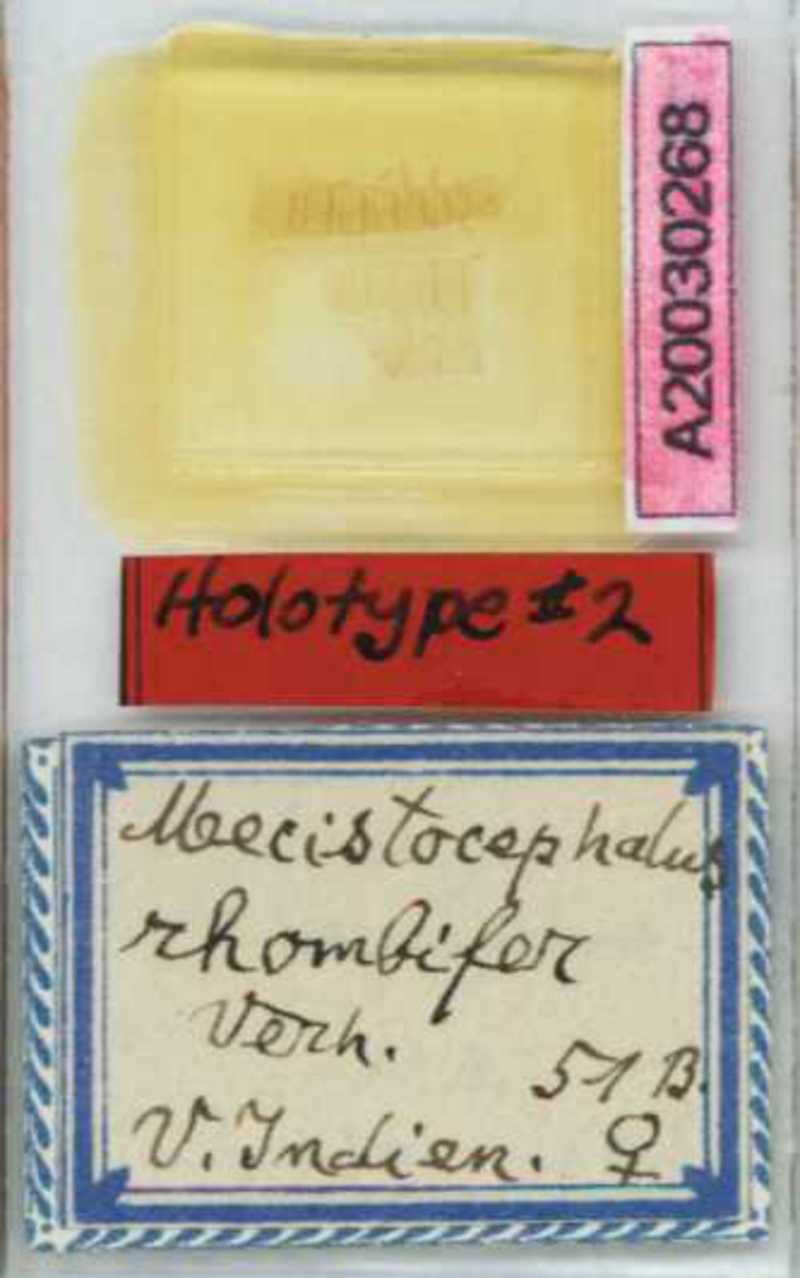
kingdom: Animalia
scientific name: Animalia
